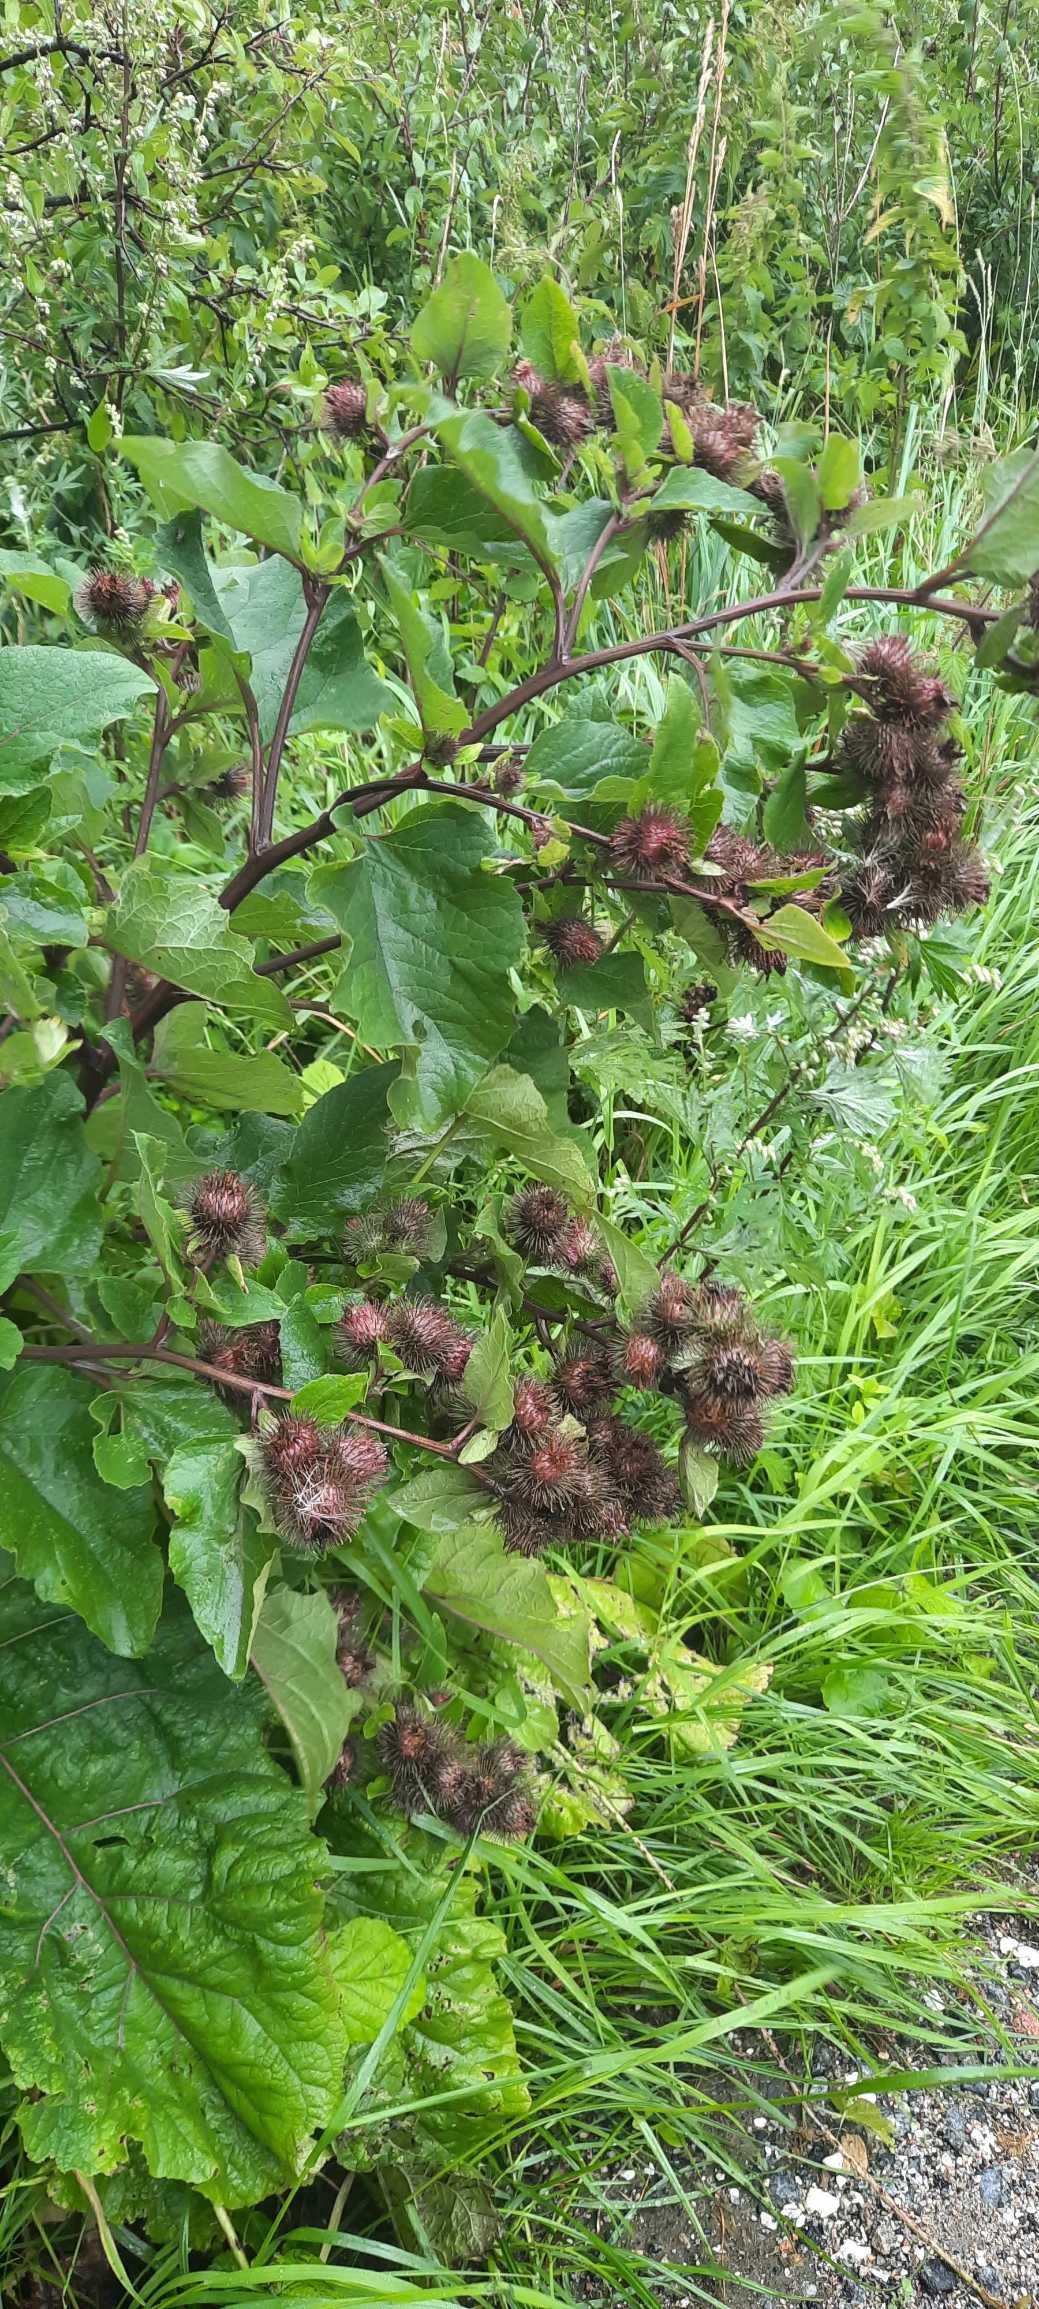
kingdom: Plantae
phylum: Tracheophyta
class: Magnoliopsida
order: Asterales
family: Asteraceae
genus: Arctium
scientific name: Arctium lappa
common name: Glat burre
